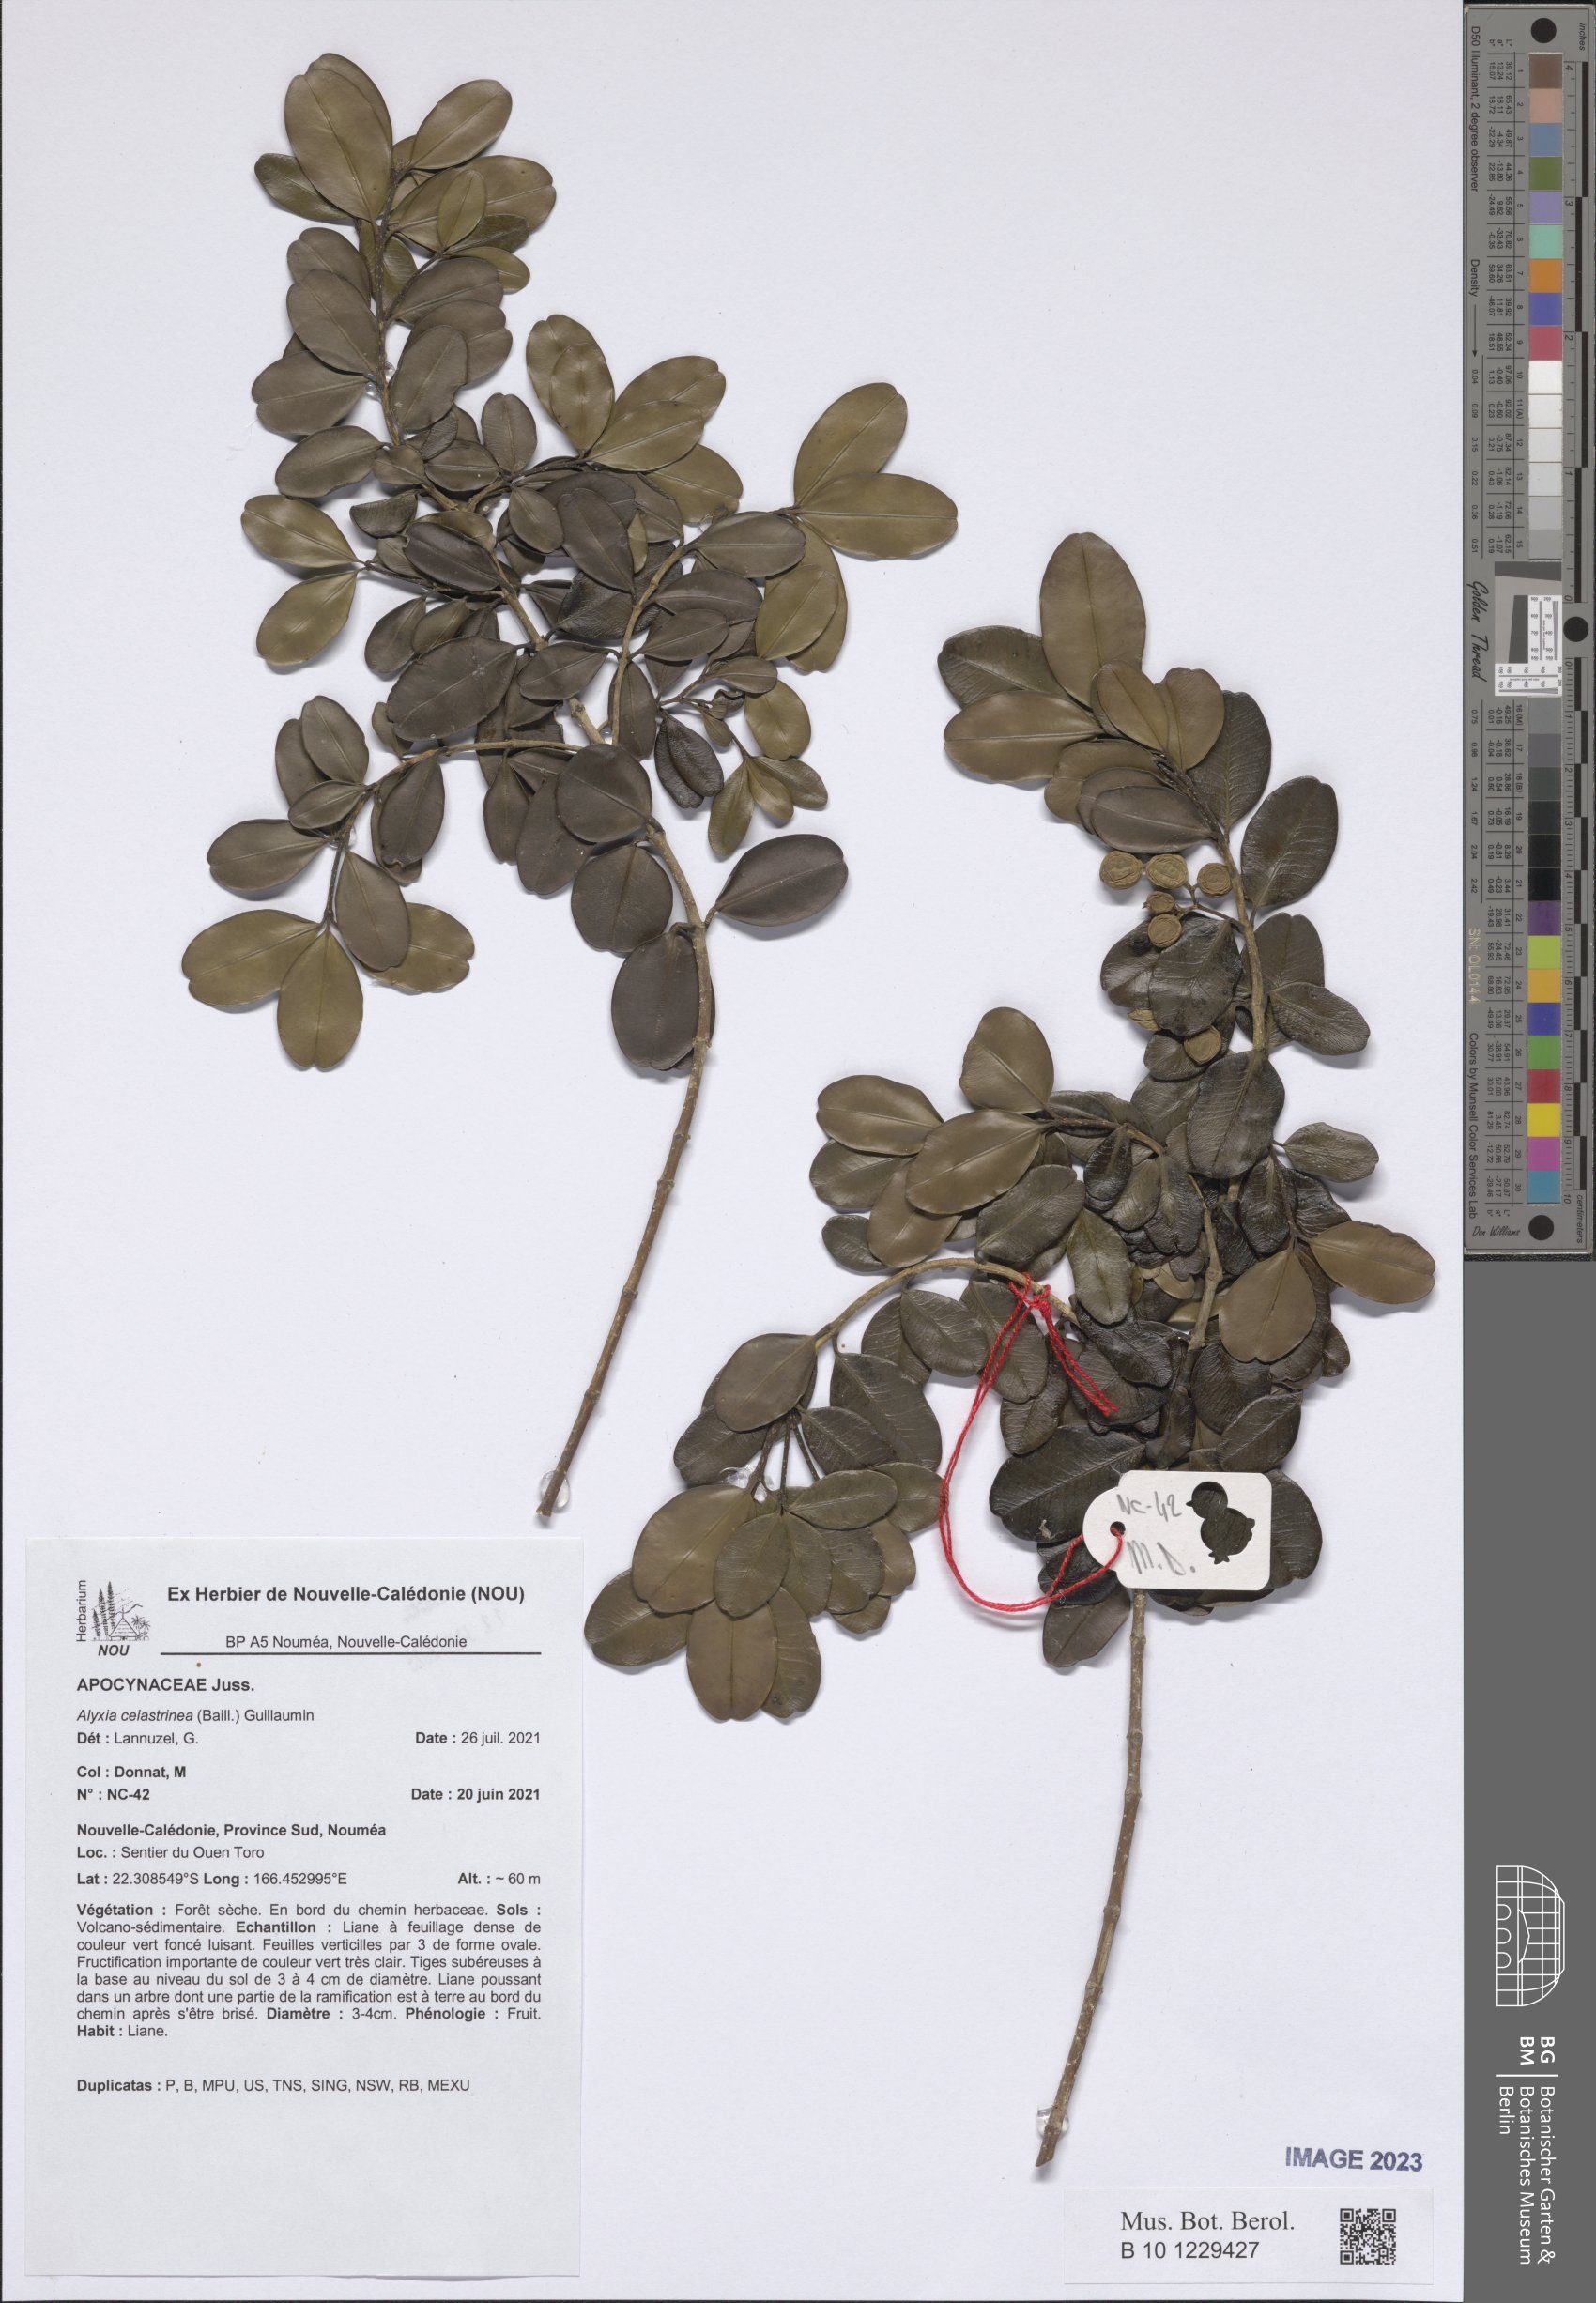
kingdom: Plantae
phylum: Tracheophyta
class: Magnoliopsida
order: Gentianales
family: Apocynaceae
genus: Alyxia
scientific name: Alyxia tisserantii
